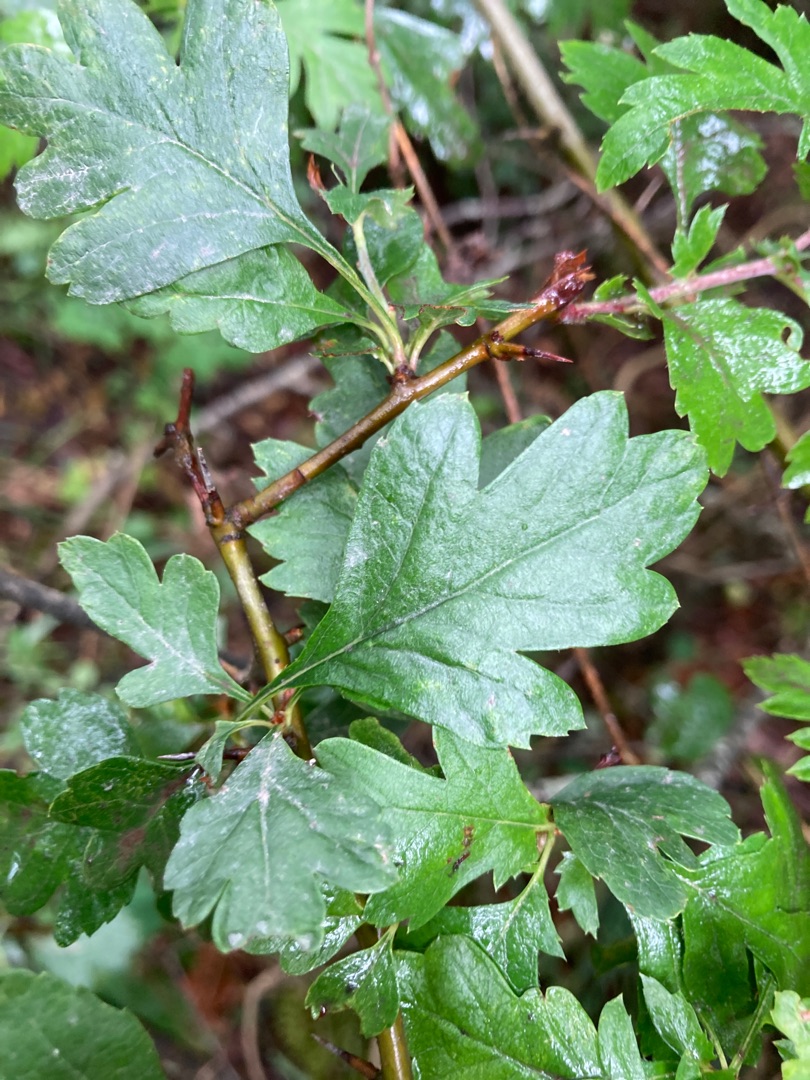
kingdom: Plantae
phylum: Tracheophyta
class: Magnoliopsida
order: Rosales
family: Rosaceae
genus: Crataegus
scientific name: Crataegus monogyna
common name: Engriflet hvidtjørn
